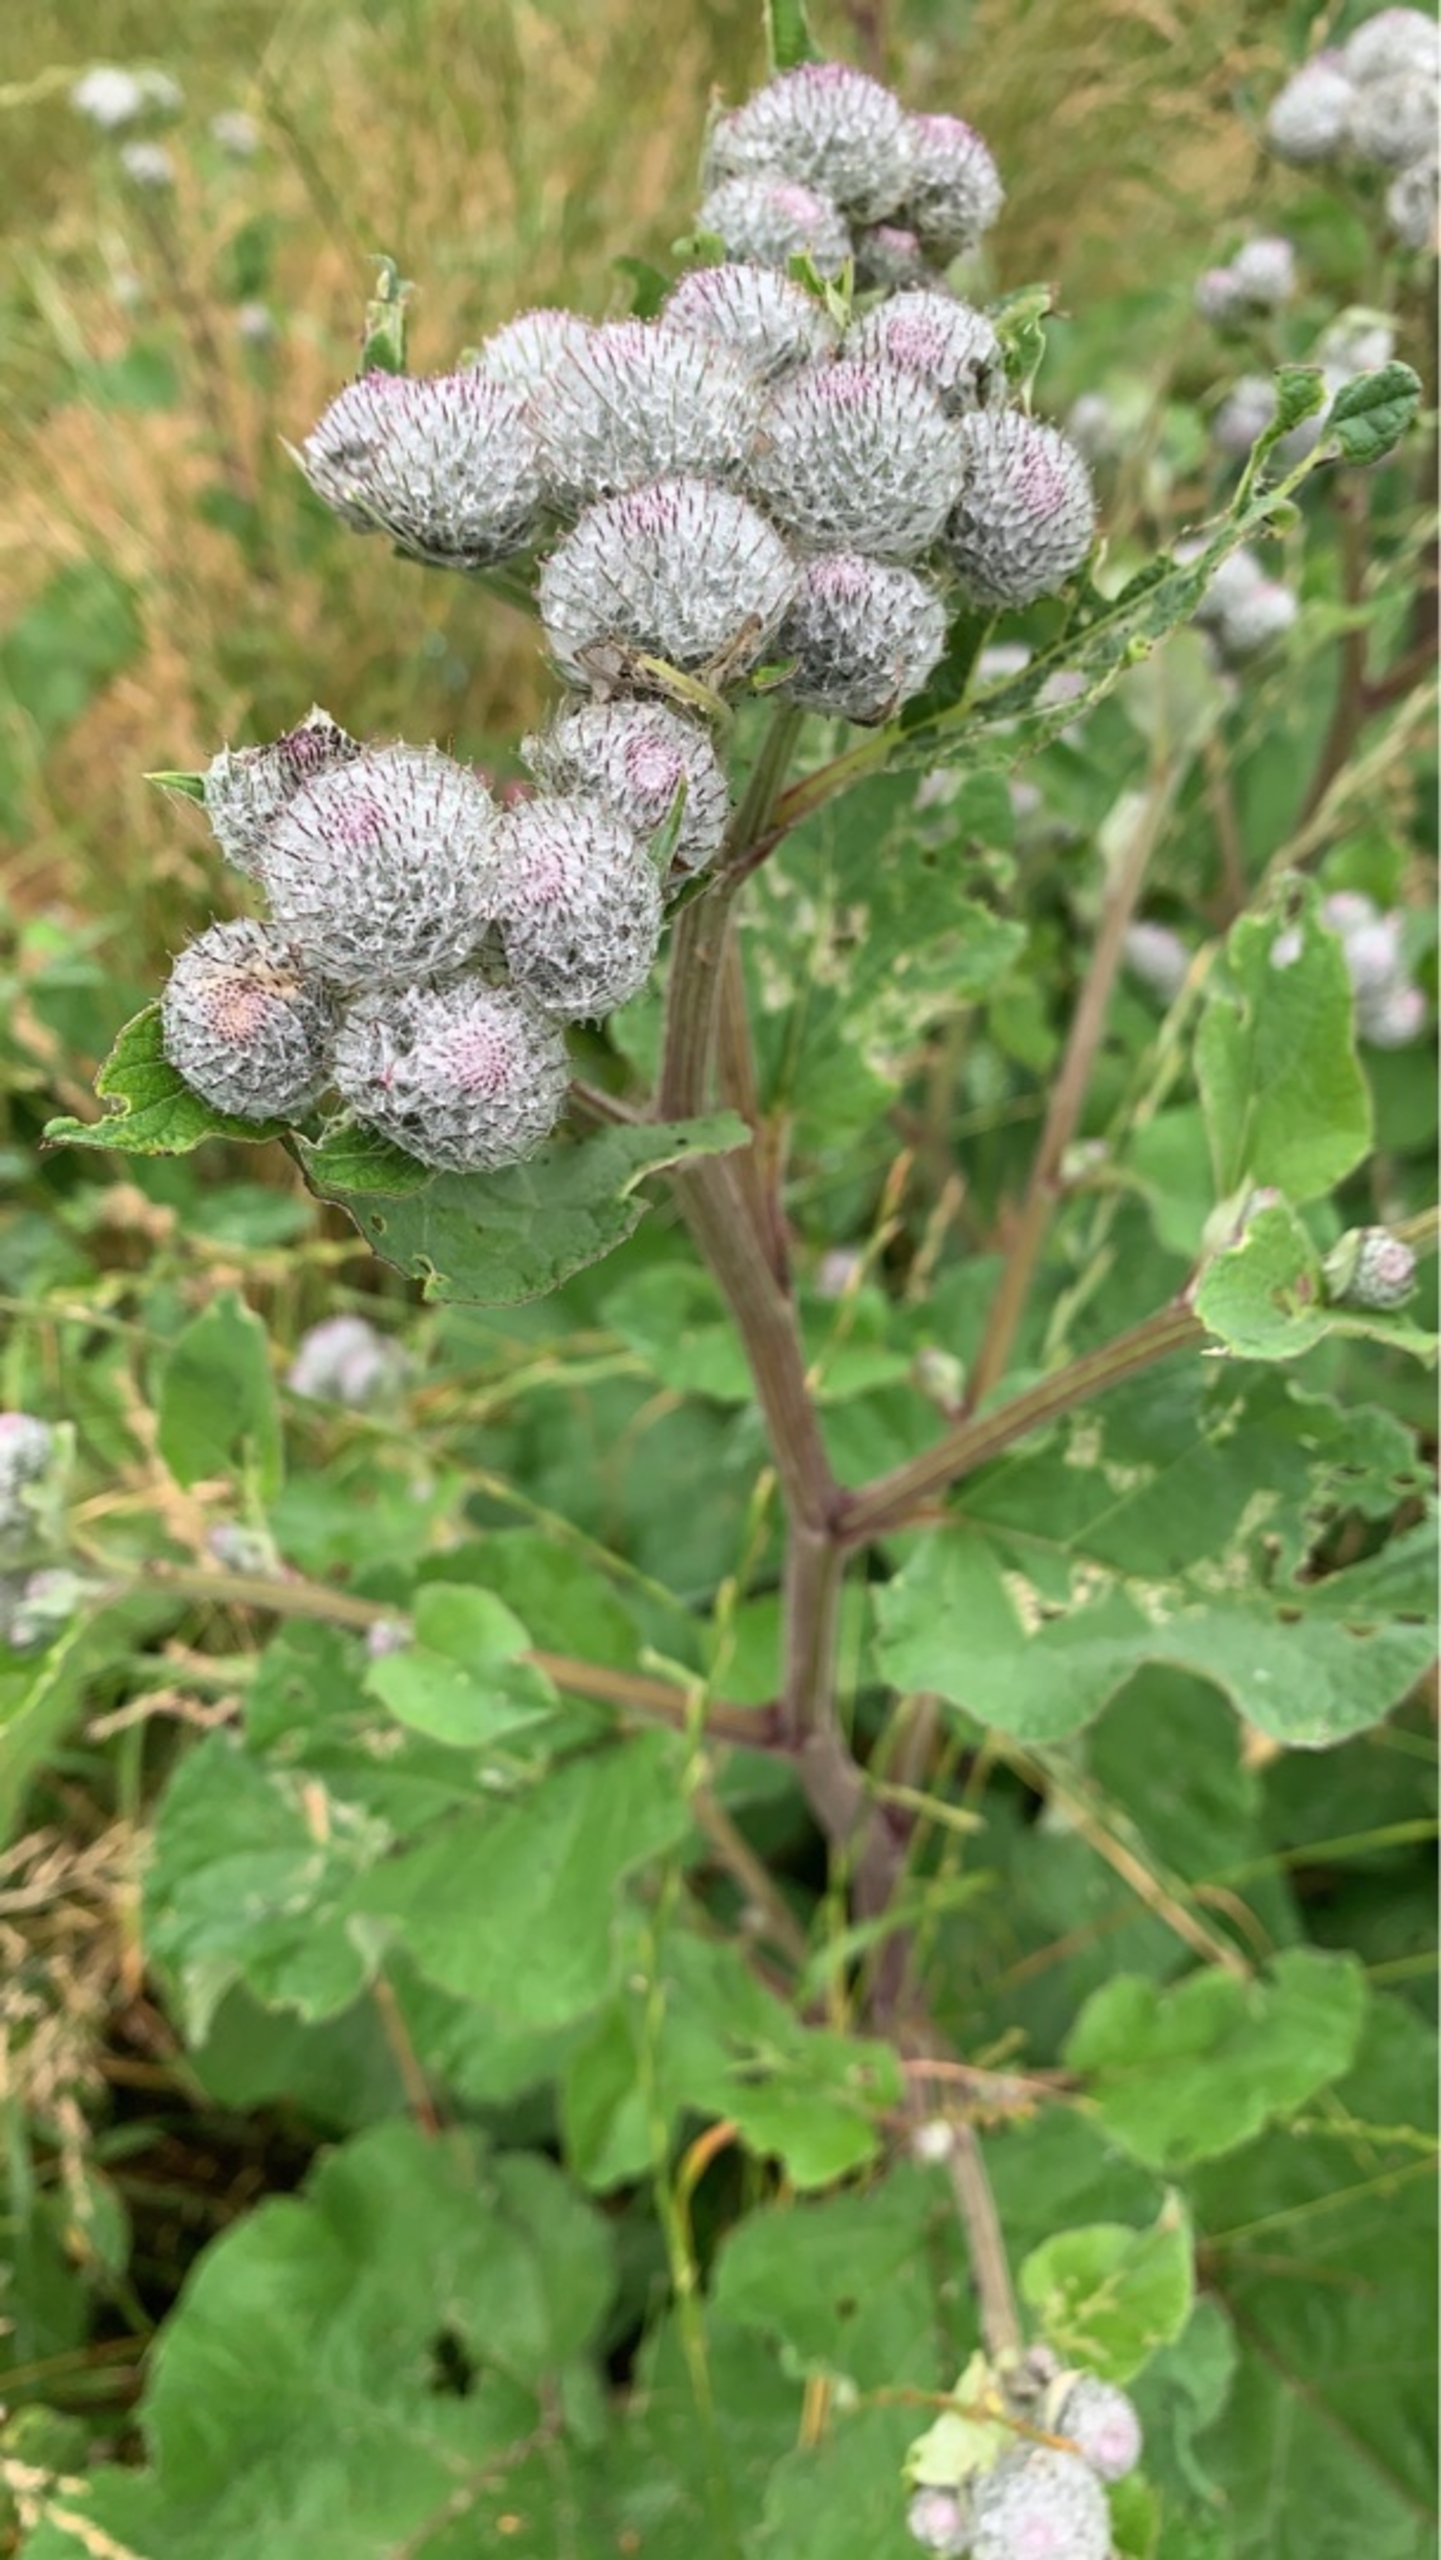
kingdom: Plantae
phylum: Tracheophyta
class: Magnoliopsida
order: Asterales
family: Asteraceae
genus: Arctium
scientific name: Arctium tomentosum
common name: Filtet burre
